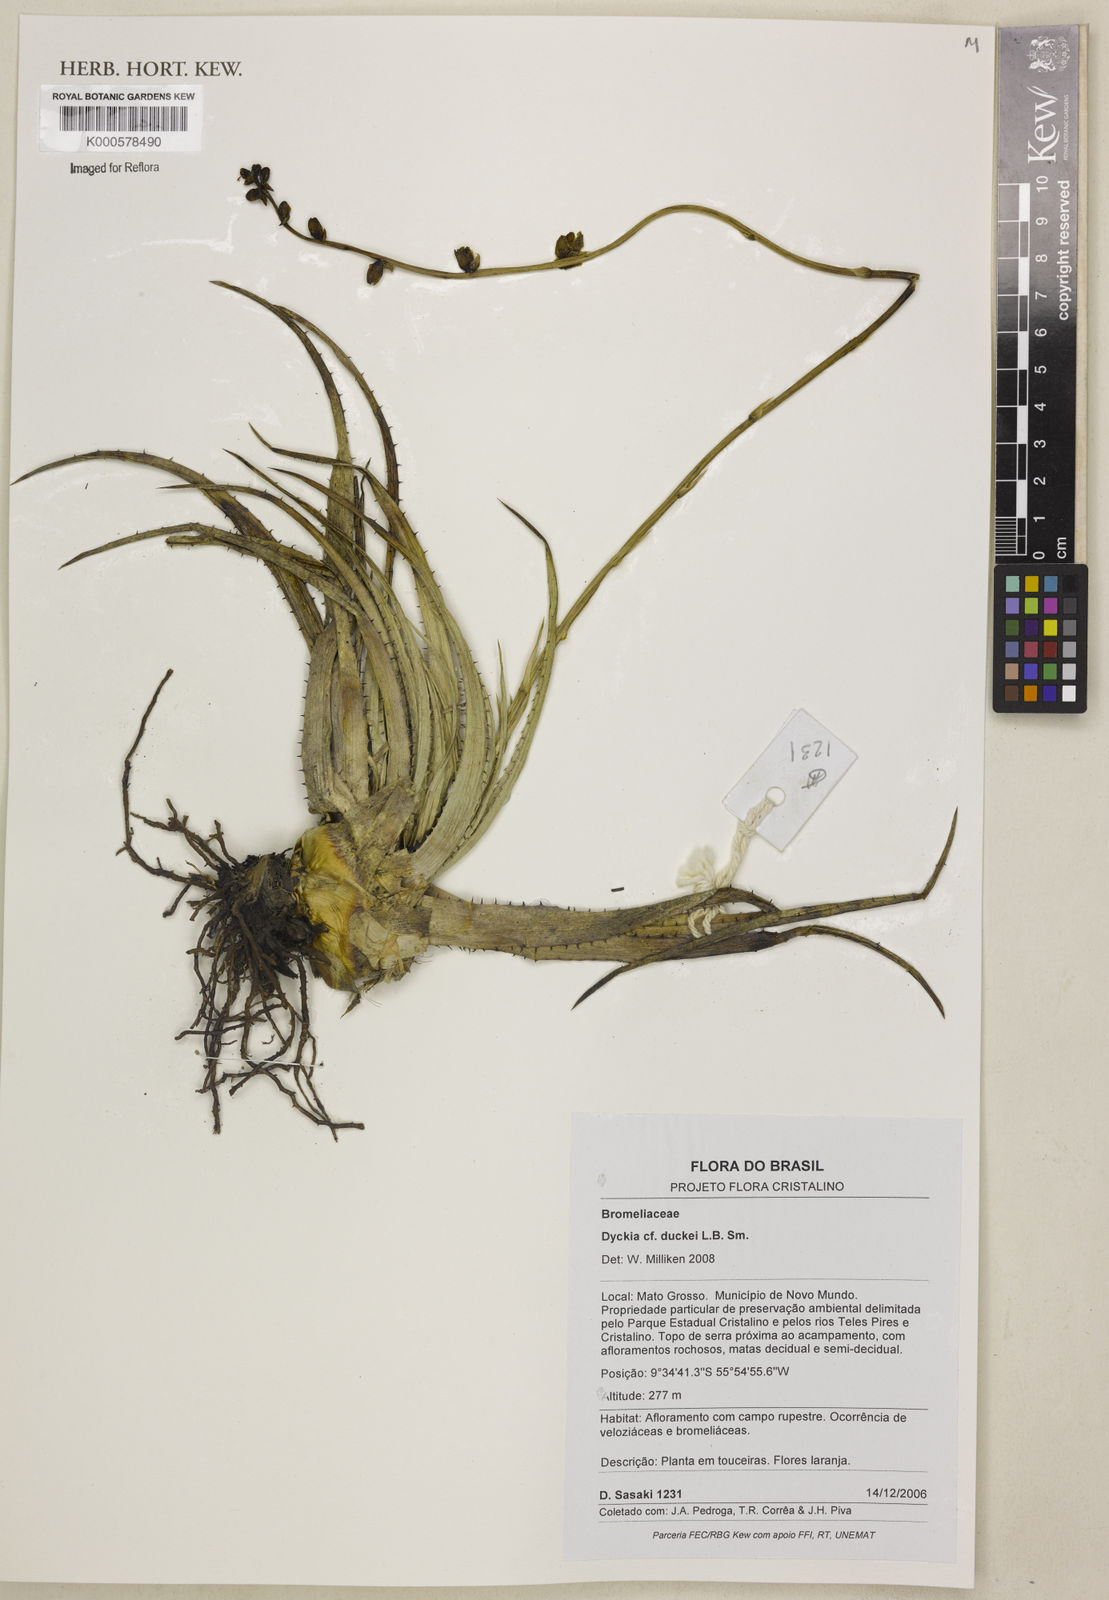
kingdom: Plantae
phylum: Tracheophyta
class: Liliopsida
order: Poales
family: Bromeliaceae
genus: Dyckia
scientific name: Dyckia duckei
